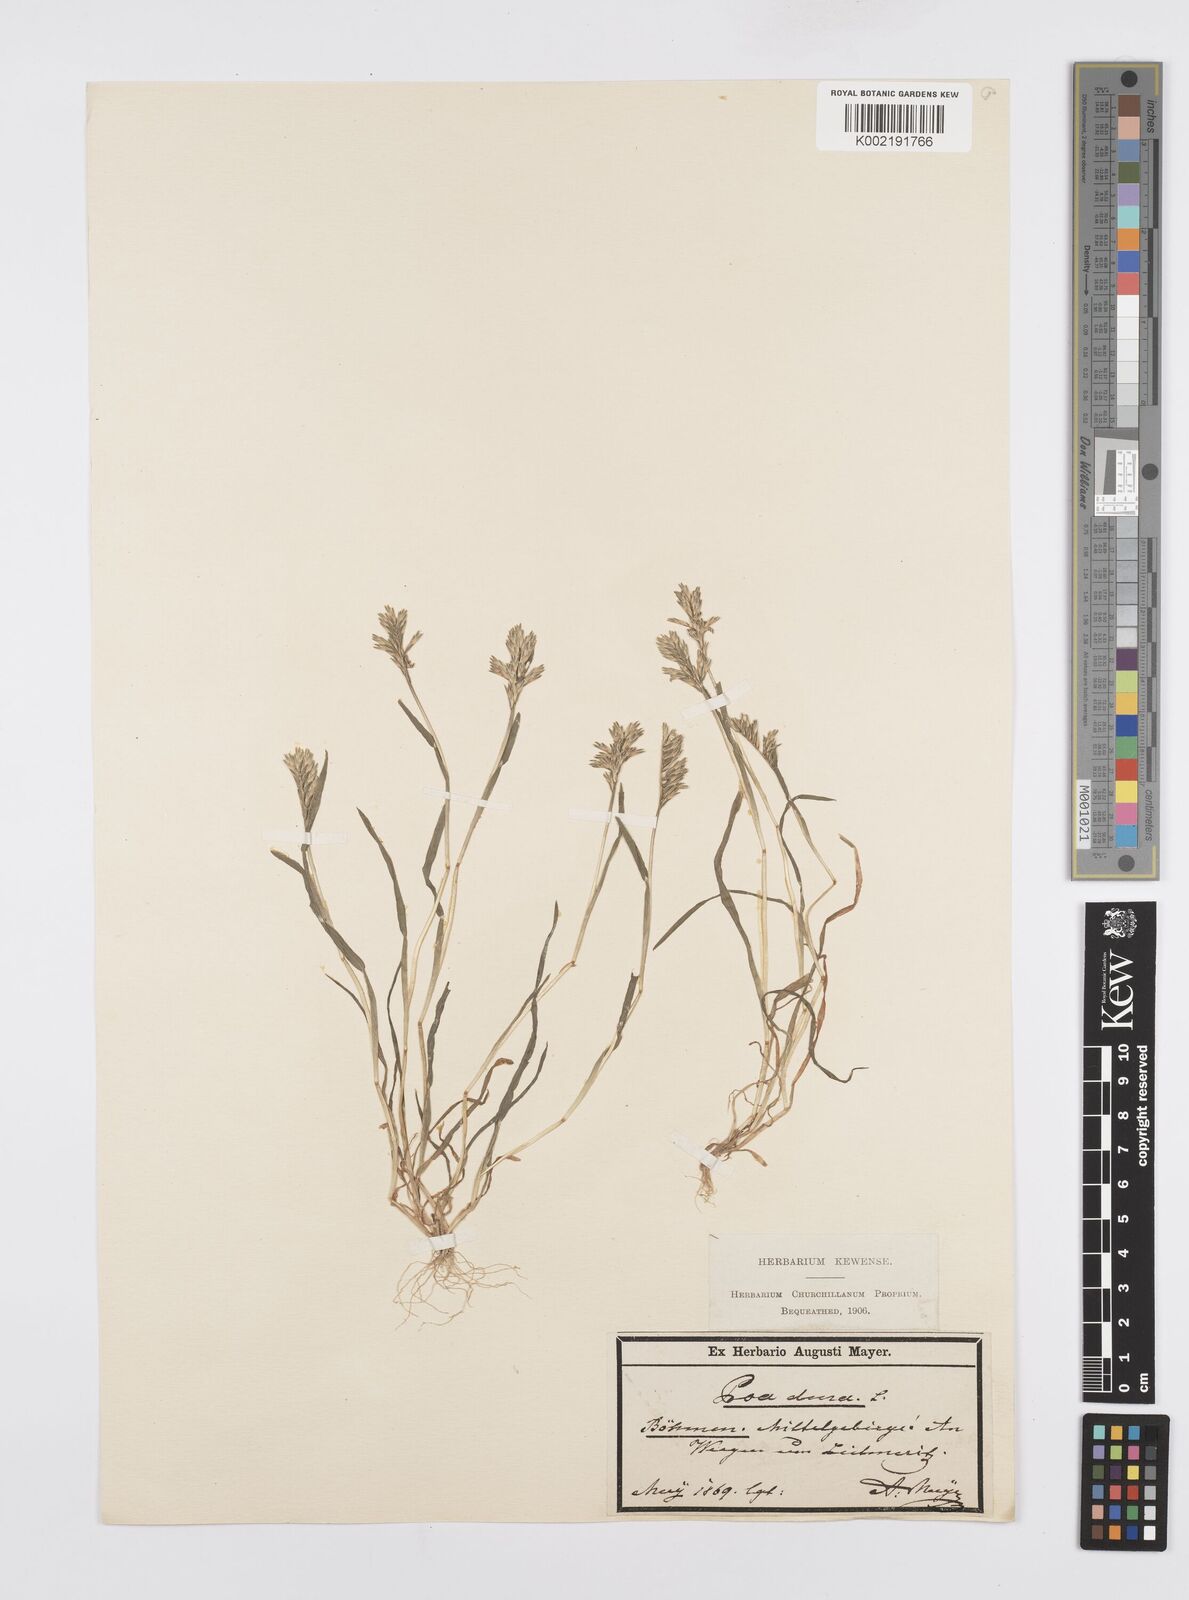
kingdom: Plantae
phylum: Tracheophyta
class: Liliopsida
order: Poales
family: Poaceae
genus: Sclerochloa
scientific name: Sclerochloa dura
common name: Common hardgrass
